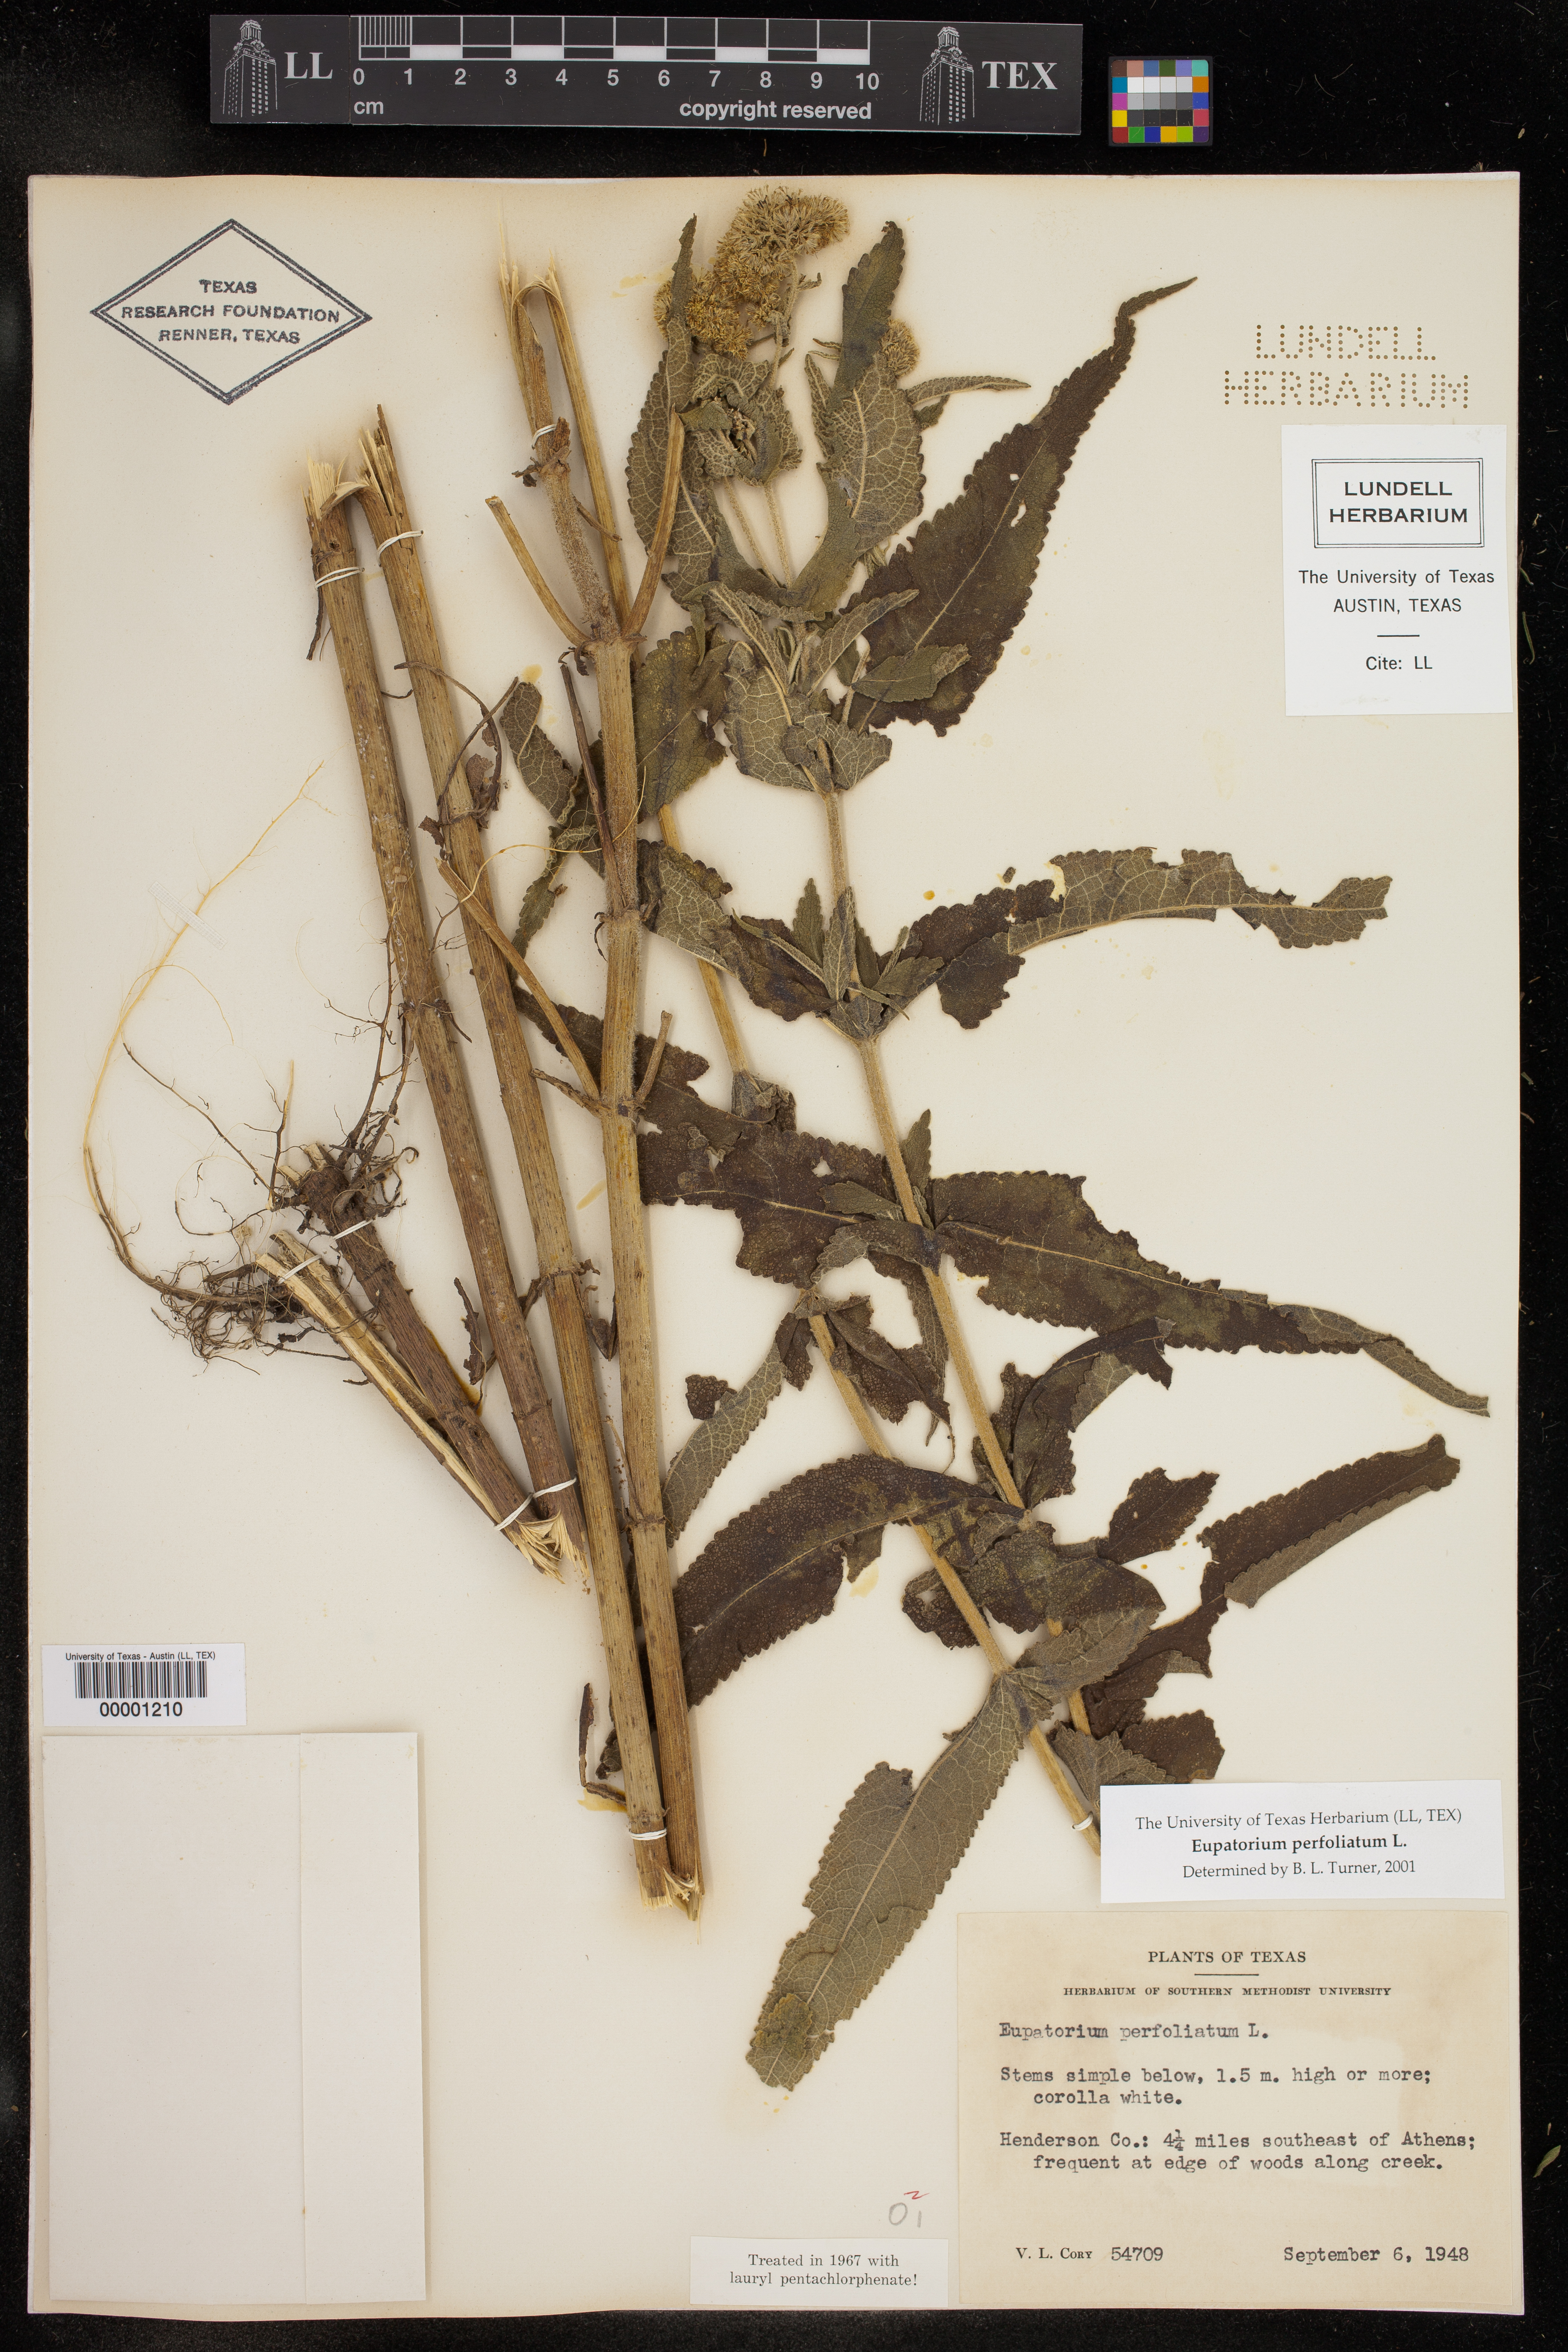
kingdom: Plantae
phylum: Tracheophyta
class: Magnoliopsida
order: Asterales
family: Asteraceae
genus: Eupatorium
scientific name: Eupatorium perfoliatum
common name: Boneset
